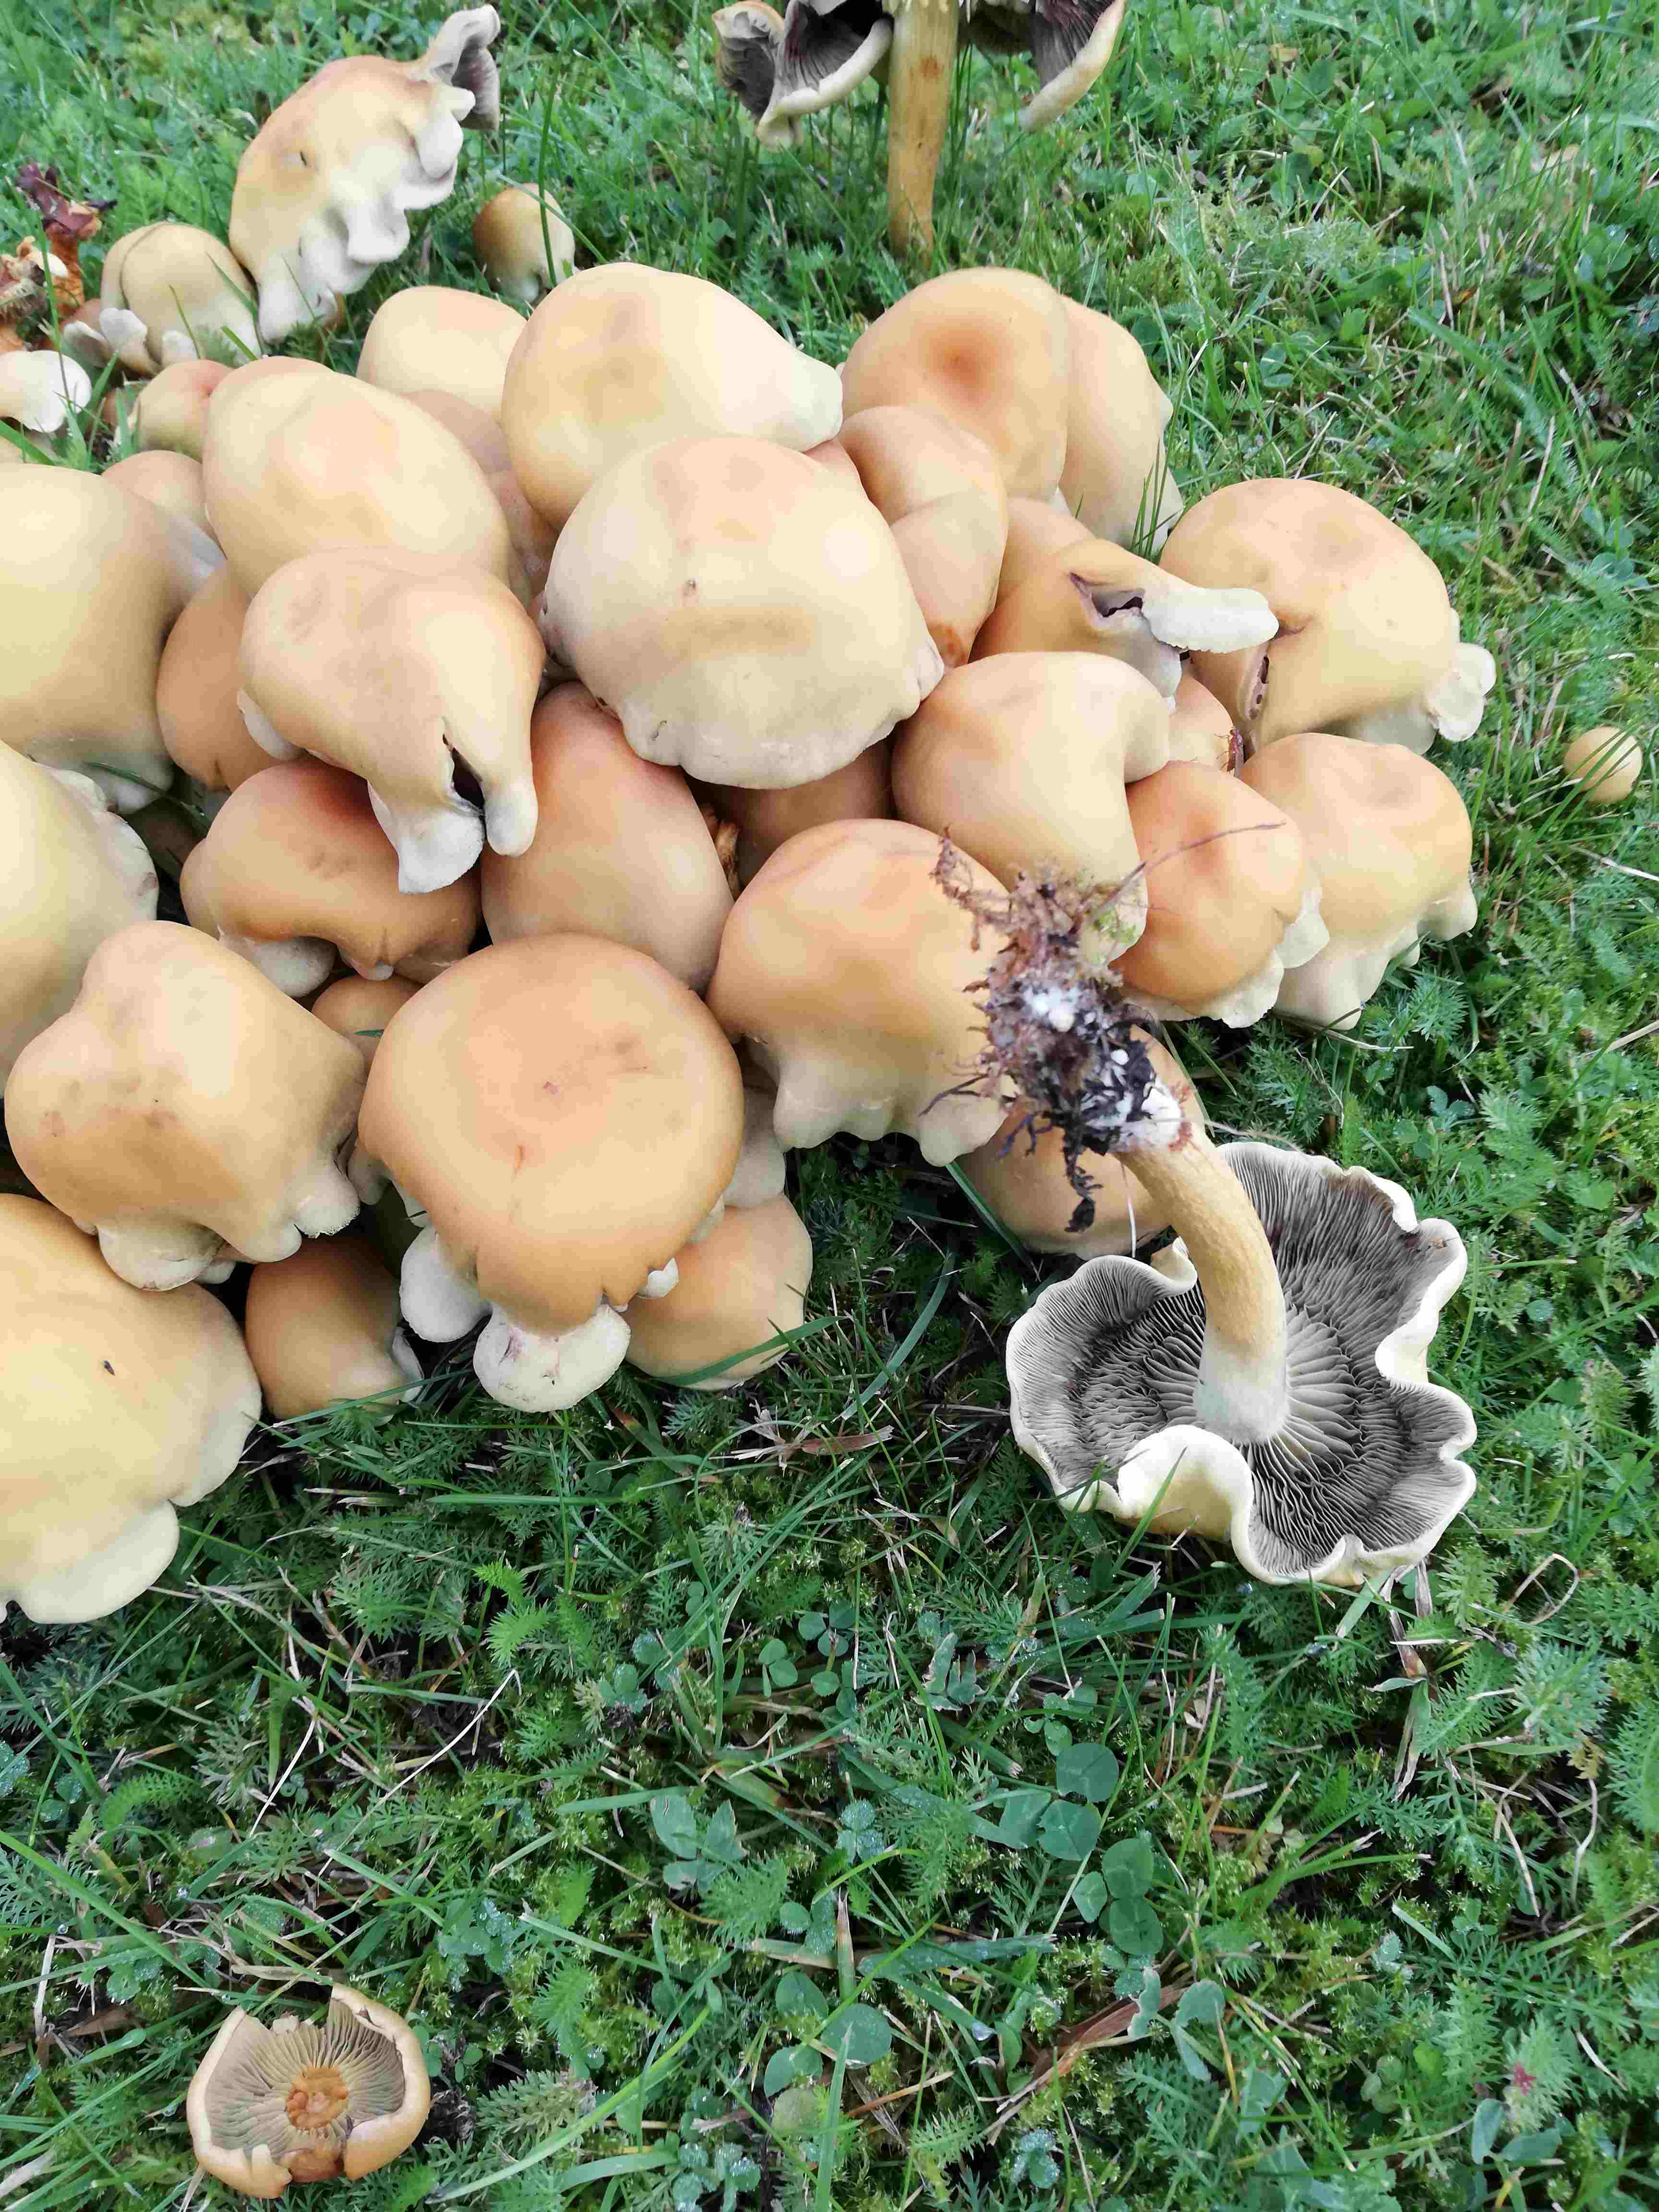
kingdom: Fungi
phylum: Basidiomycota
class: Agaricomycetes
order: Agaricales
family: Strophariaceae
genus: Hypholoma
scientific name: Hypholoma capnoides
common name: gran-svovlhat
